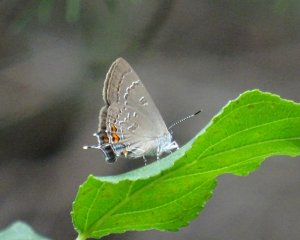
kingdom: Animalia
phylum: Arthropoda
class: Insecta
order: Lepidoptera
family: Lycaenidae
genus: Satyrium
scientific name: Satyrium calanus
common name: Banded Hairstreak
